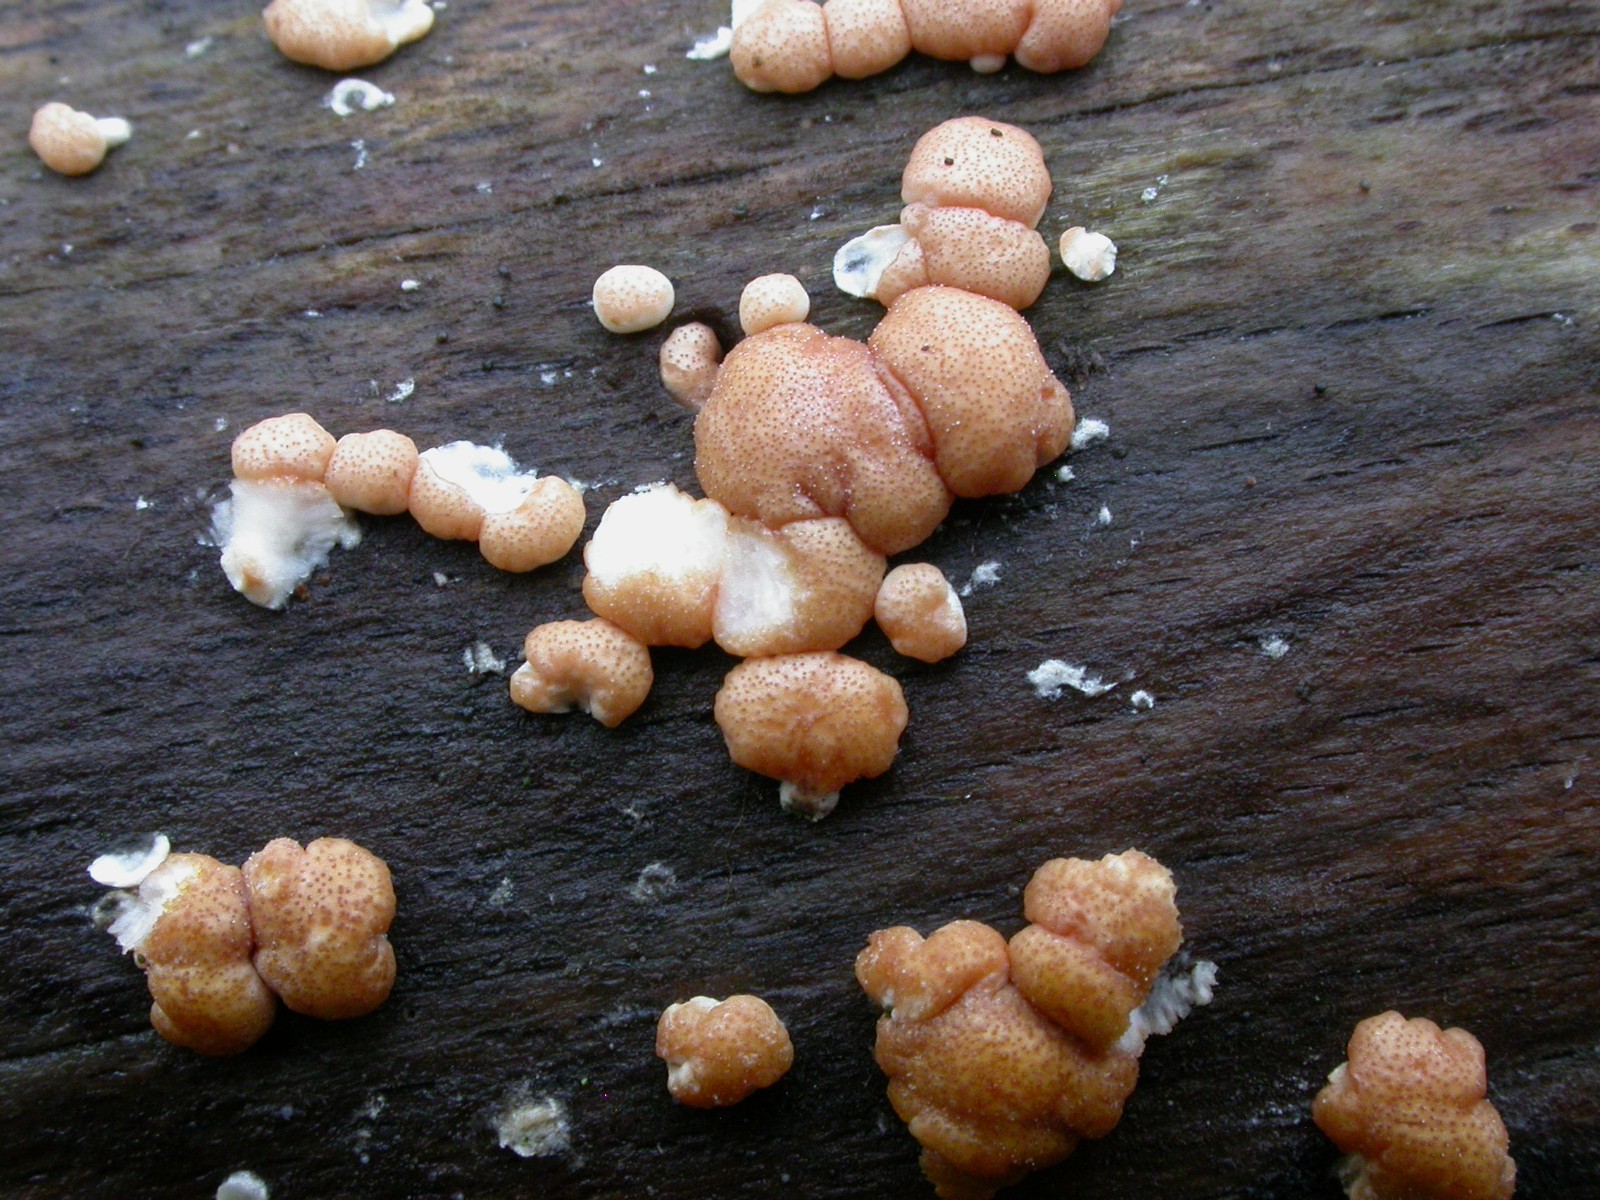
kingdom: Fungi
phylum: Ascomycota
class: Sordariomycetes
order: Hypocreales
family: Hypocreaceae
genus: Trichoderma
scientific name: Trichoderma europaeum
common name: rosabrun kødkerne
